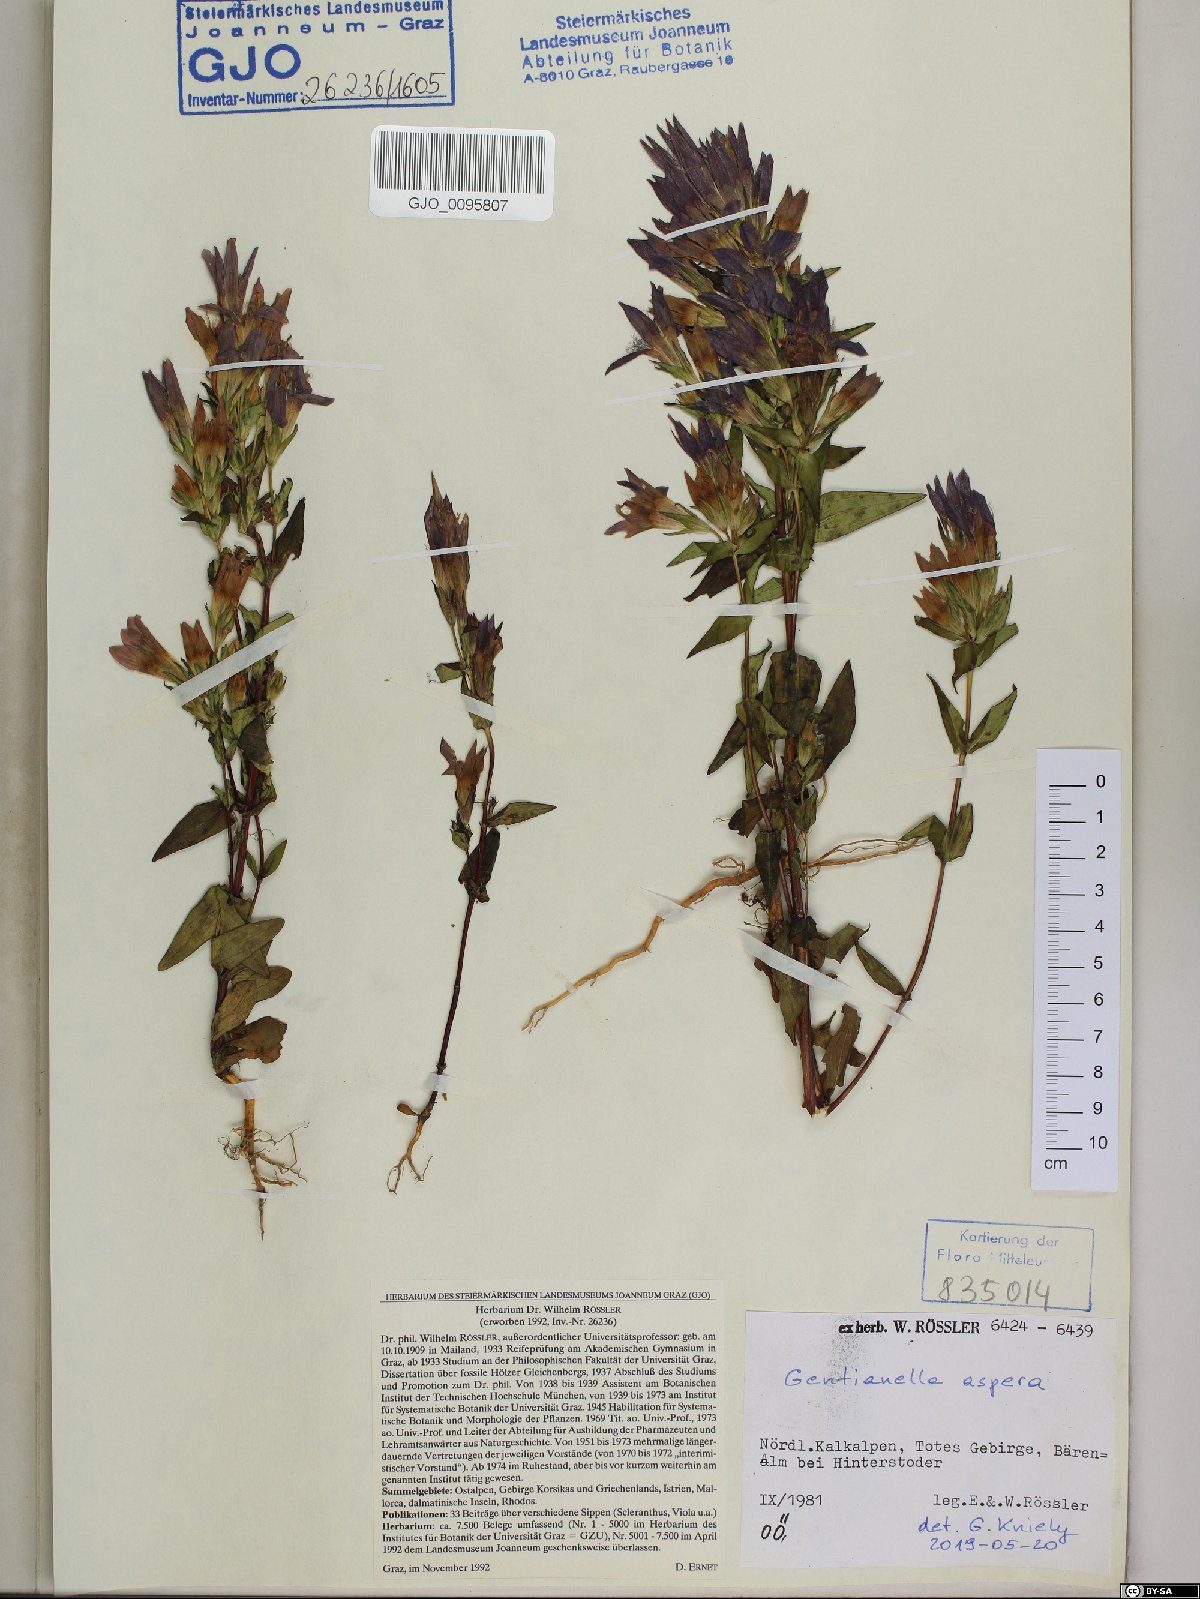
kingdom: Plantae
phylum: Tracheophyta
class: Magnoliopsida
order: Gentianales
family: Gentianaceae
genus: Gentianella
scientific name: Gentianella obtusifolia
